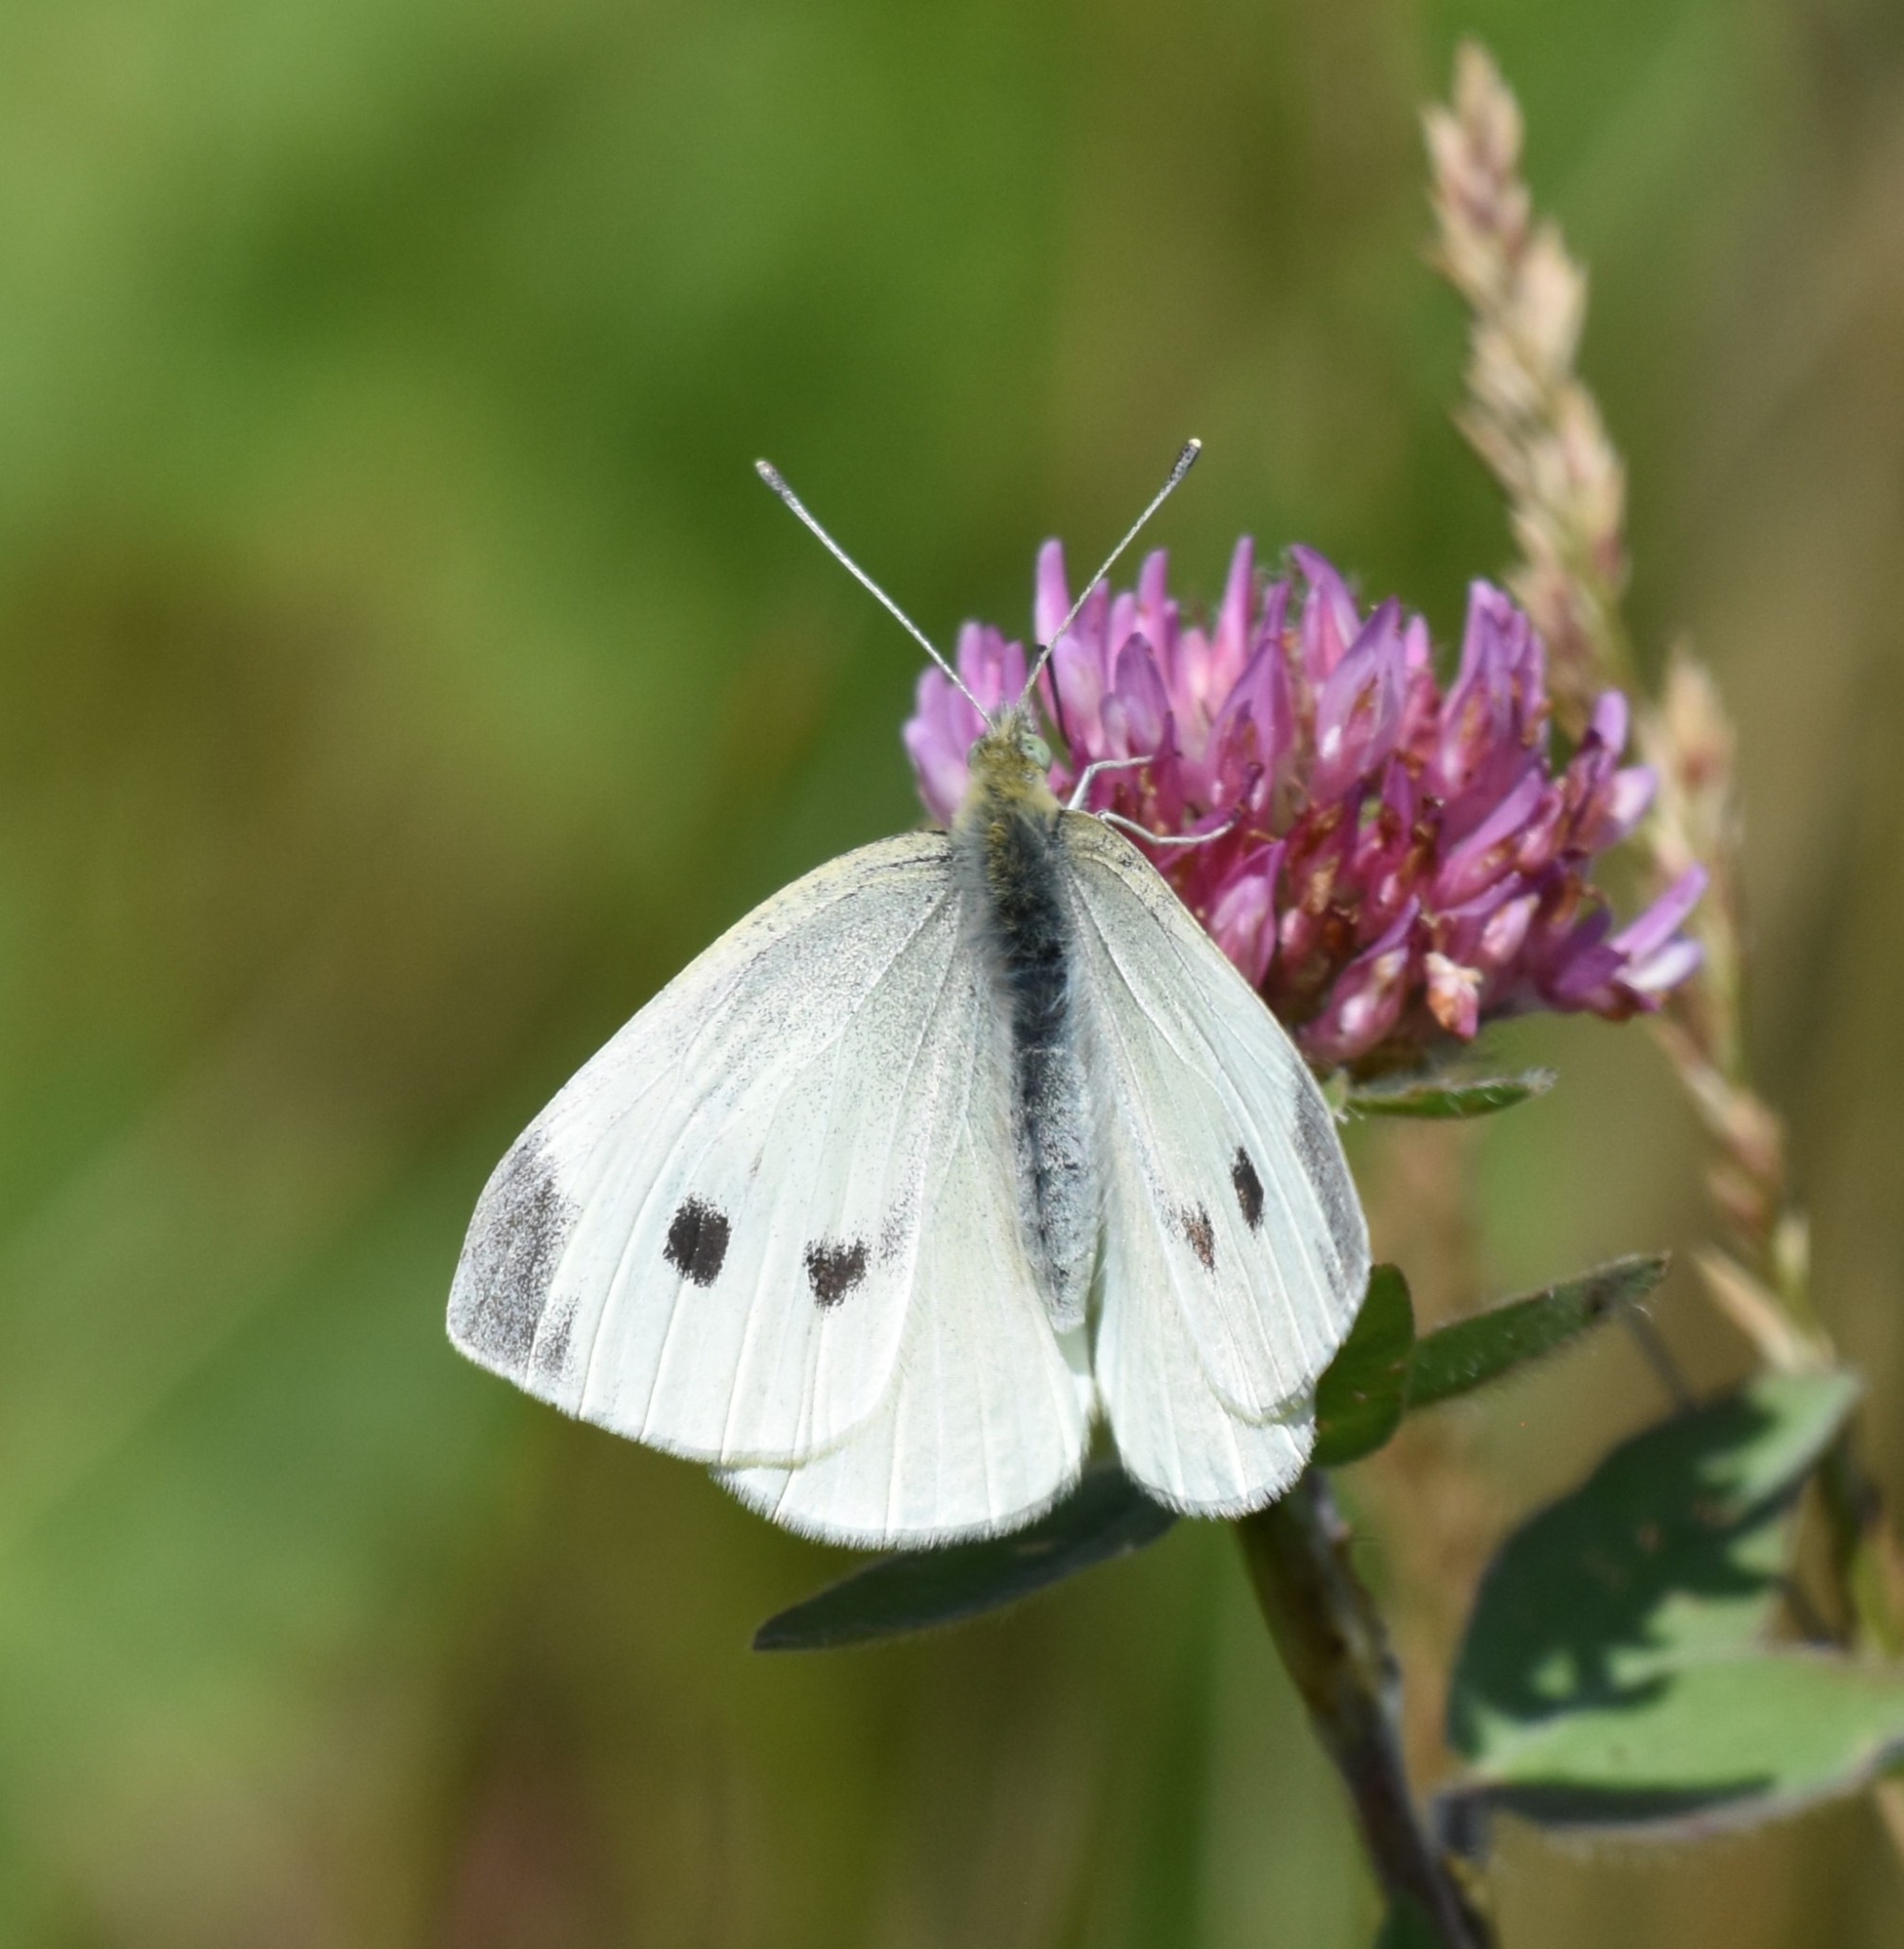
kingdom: Animalia
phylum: Arthropoda
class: Insecta
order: Lepidoptera
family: Pieridae
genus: Pieris
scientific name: Pieris rapae
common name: Lille kålsommerfugl
